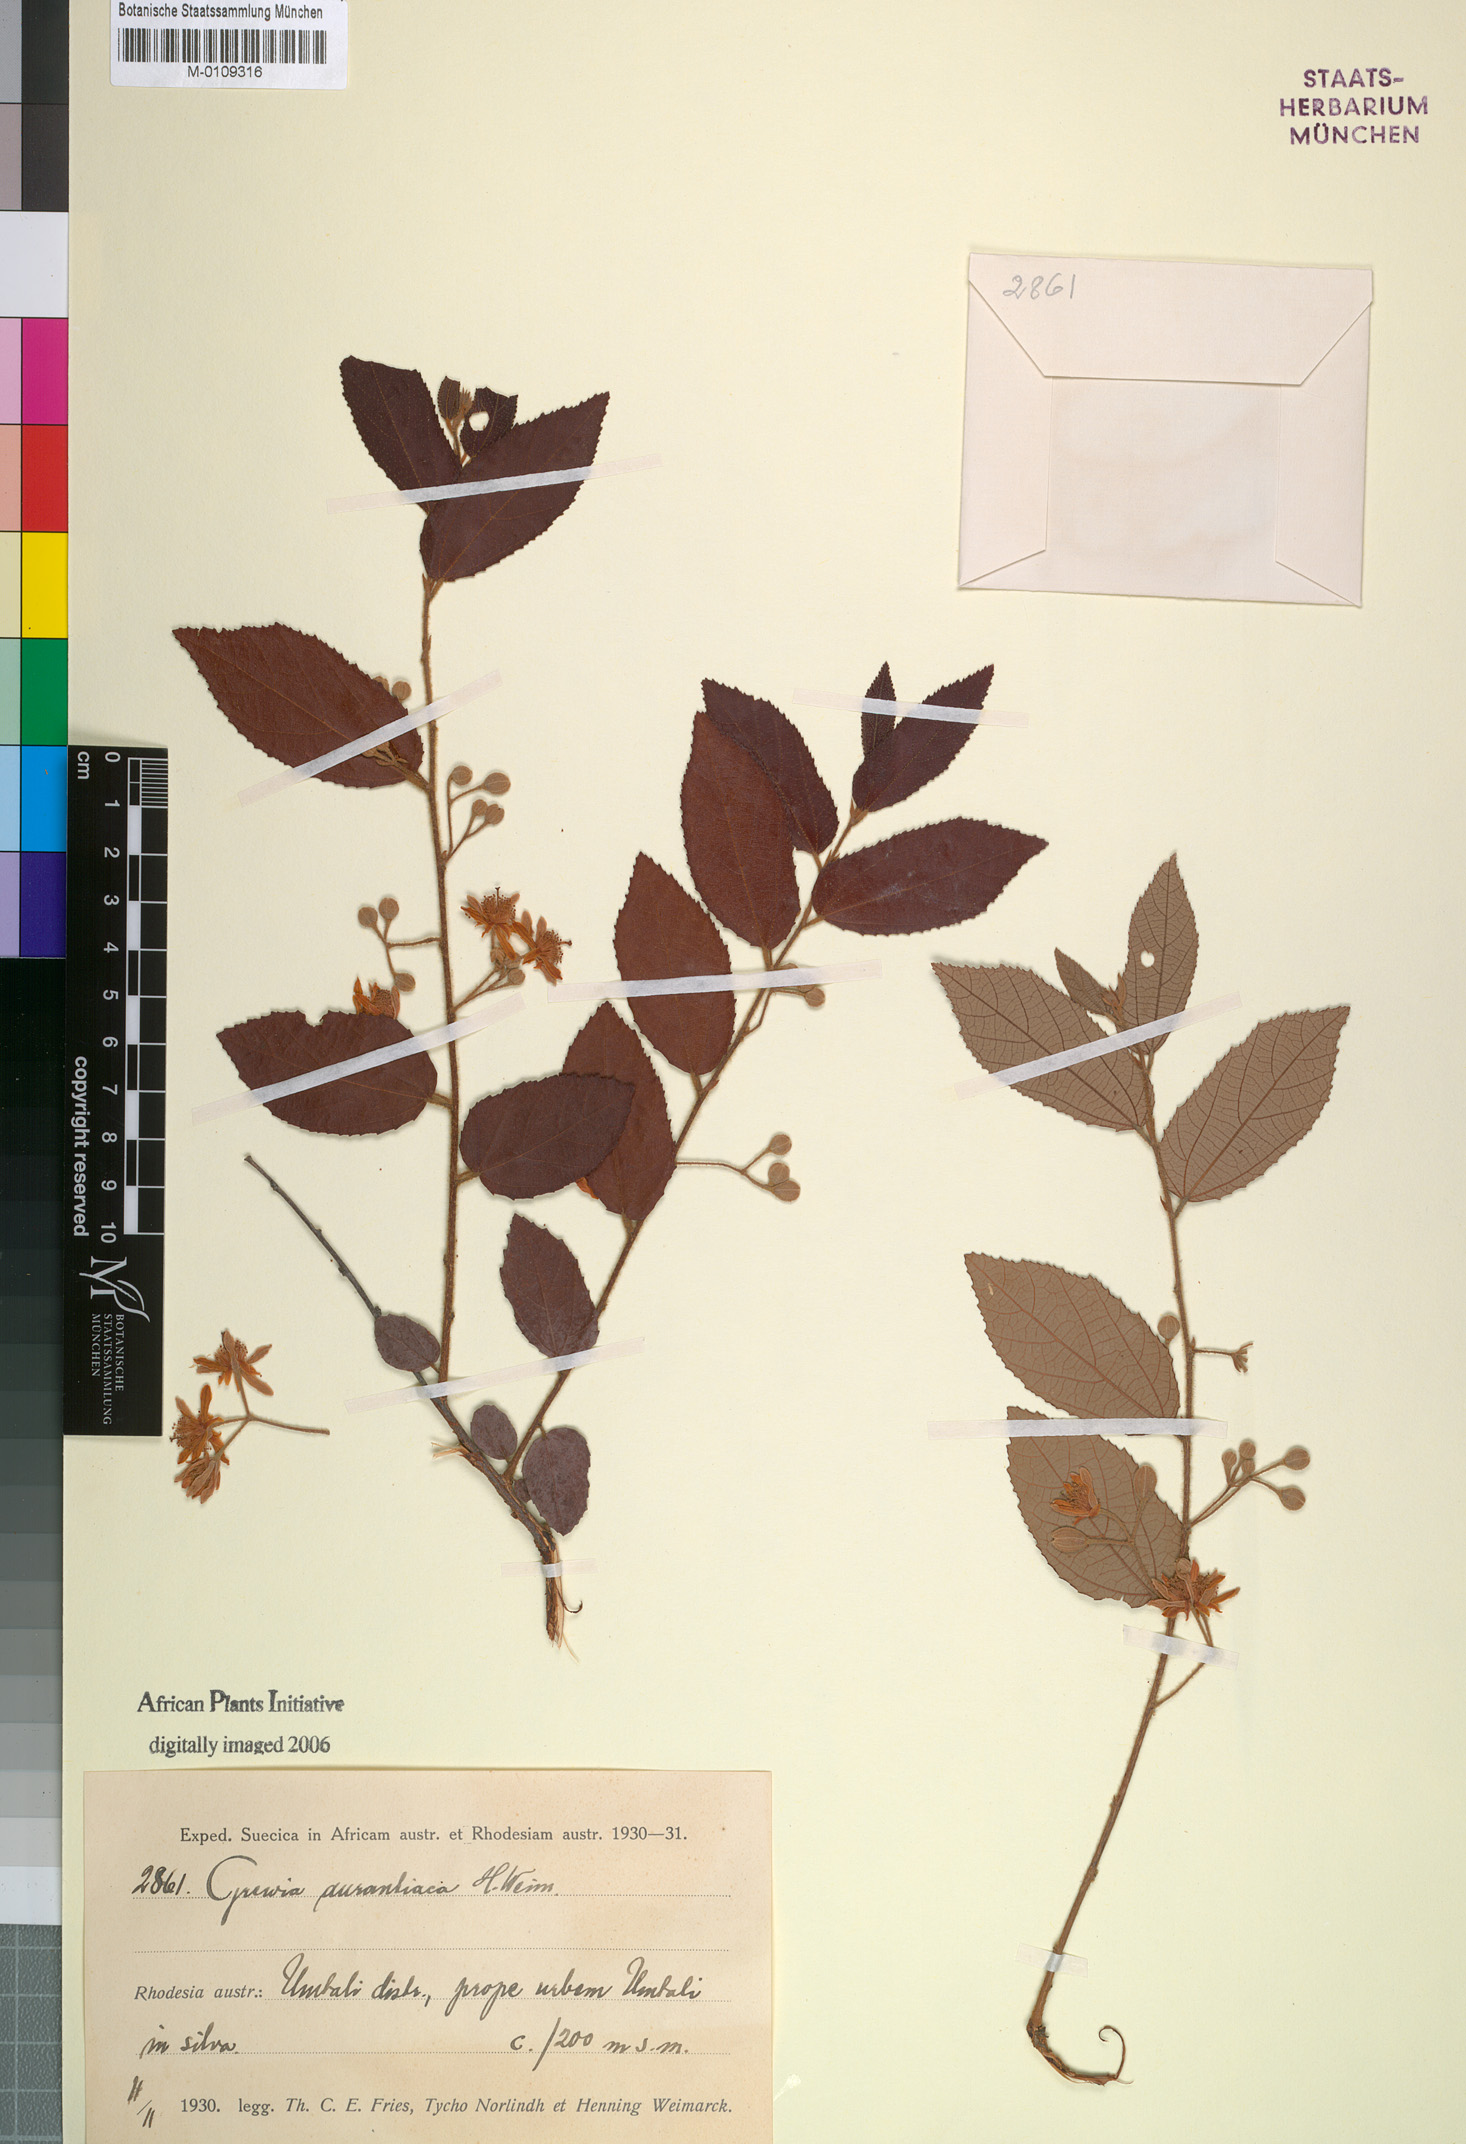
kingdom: Plantae
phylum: Tracheophyta
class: Magnoliopsida
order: Malvales
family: Malvaceae
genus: Grewia
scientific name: Grewia woodiana
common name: Golden fruit raisin
